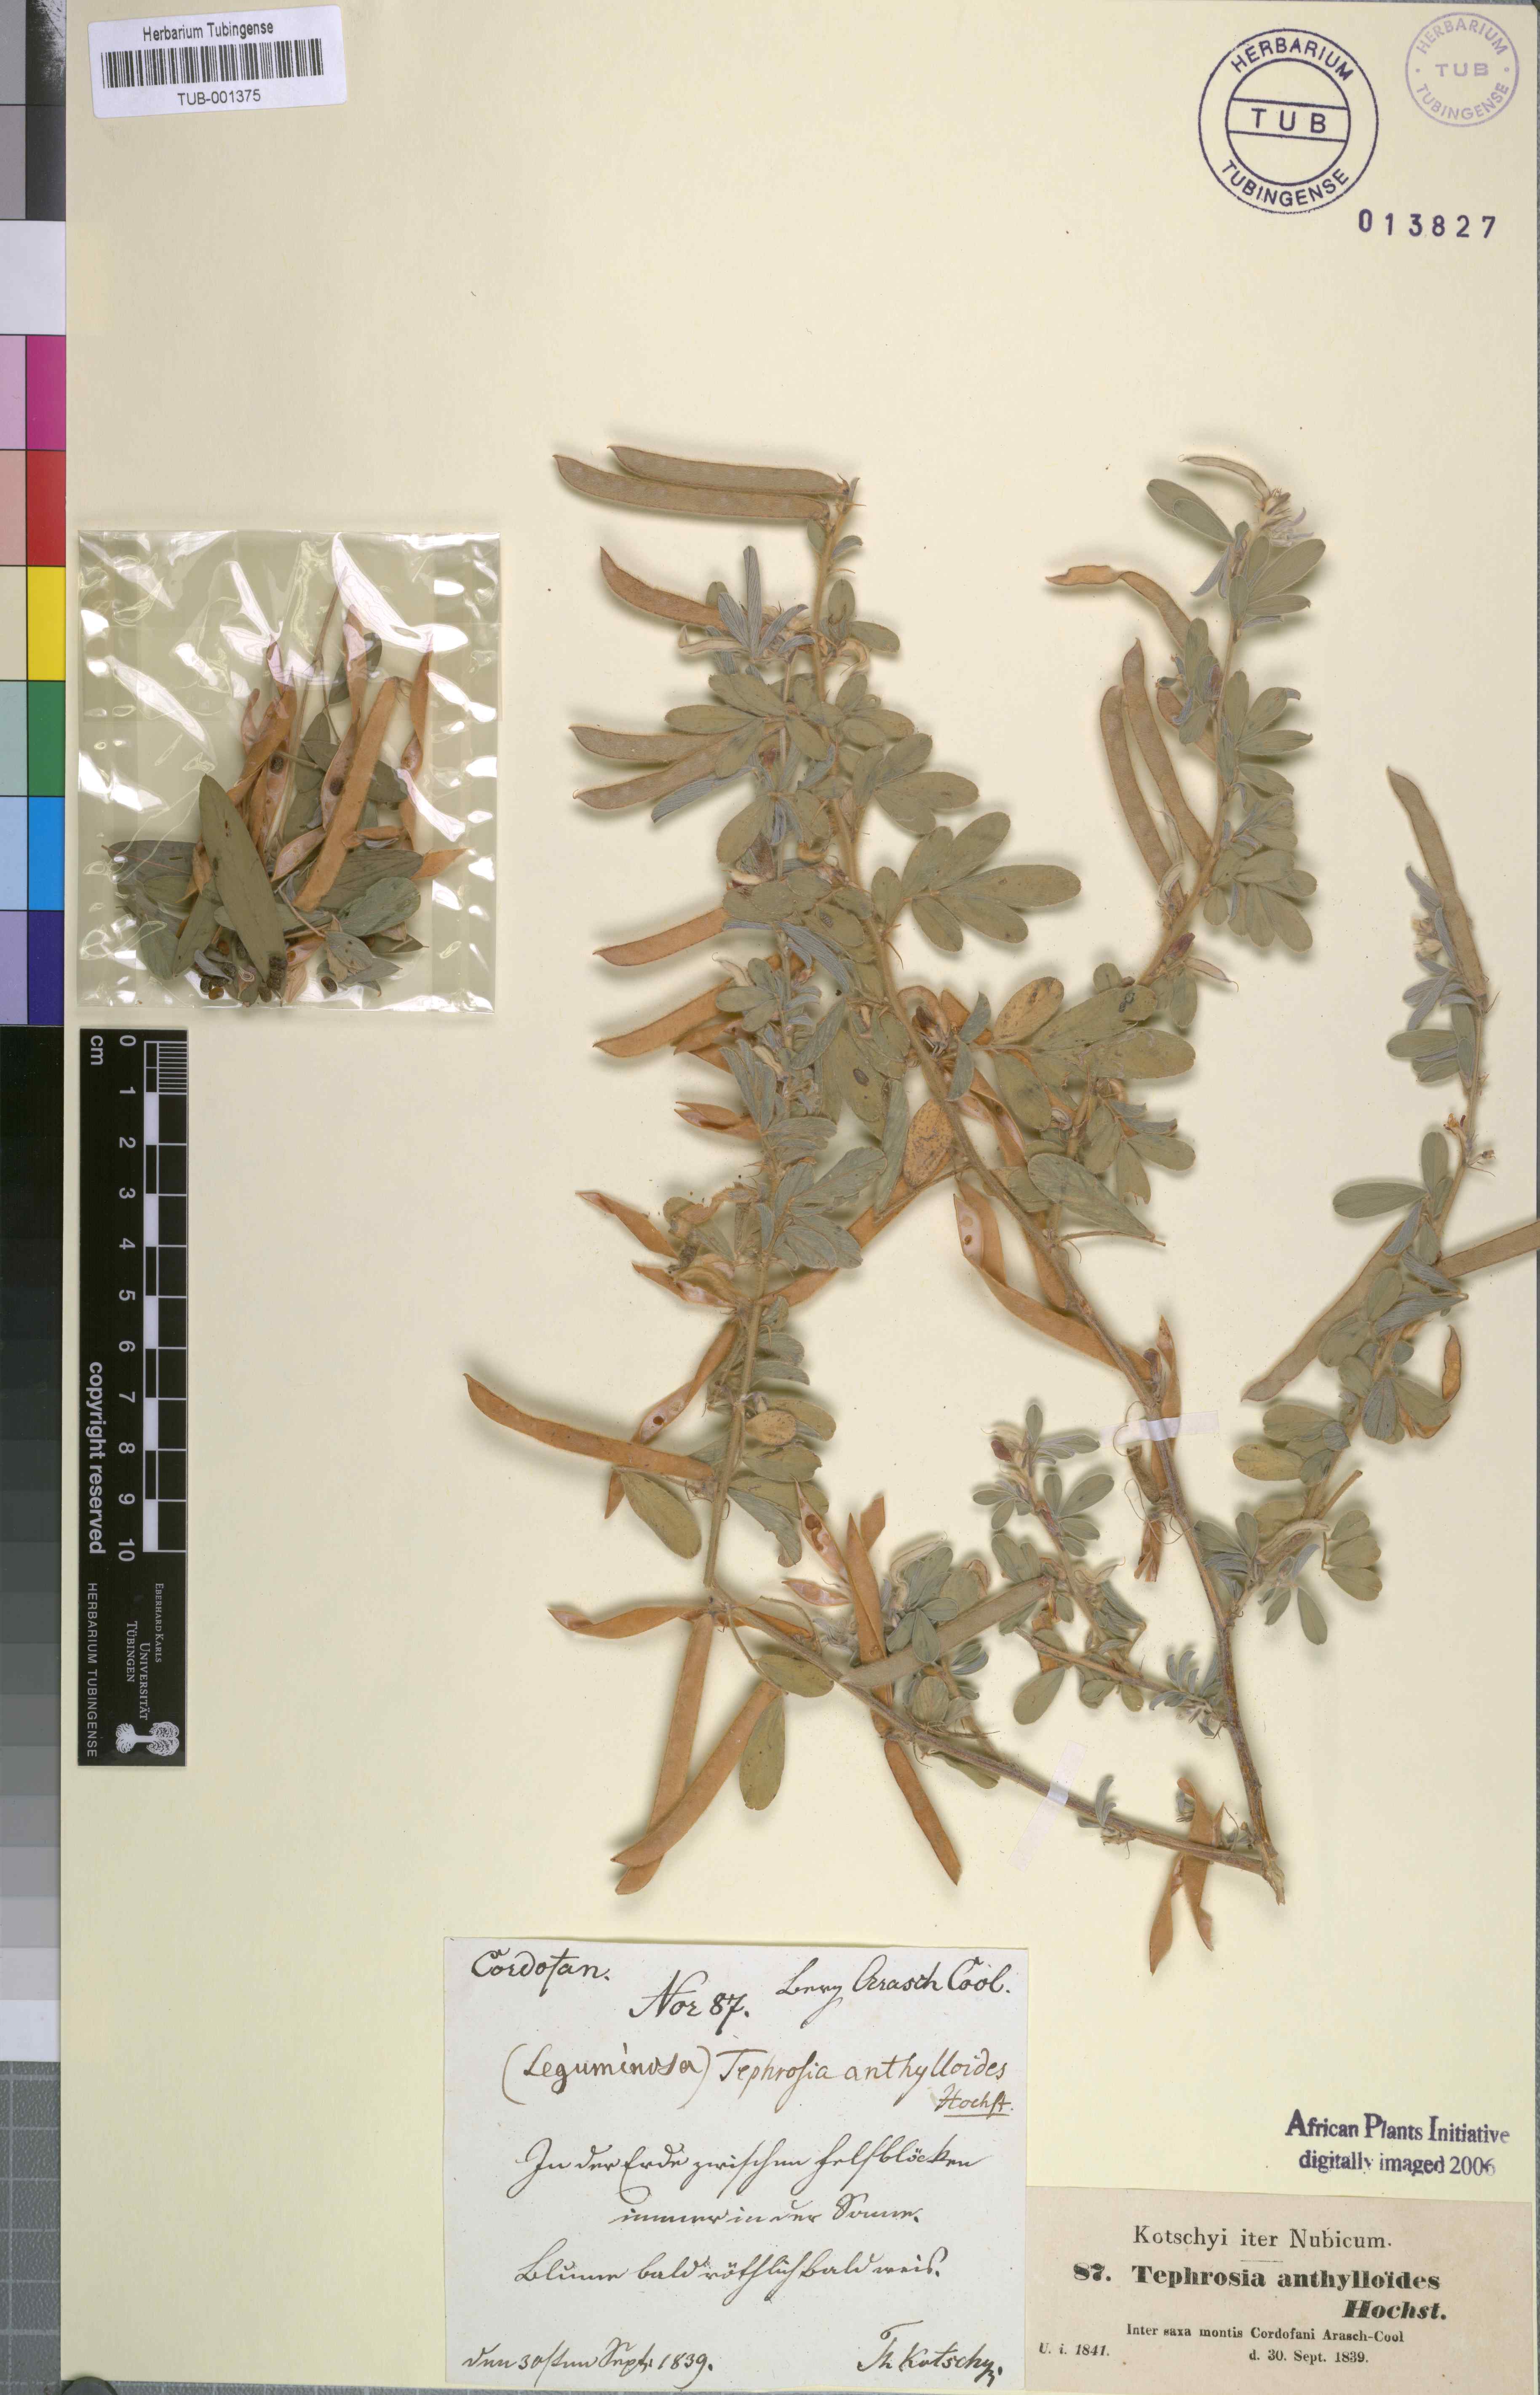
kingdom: Plantae
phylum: Tracheophyta
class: Magnoliopsida
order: Fabales
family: Fabaceae
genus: Tephrosia
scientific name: Tephrosia uniflora
